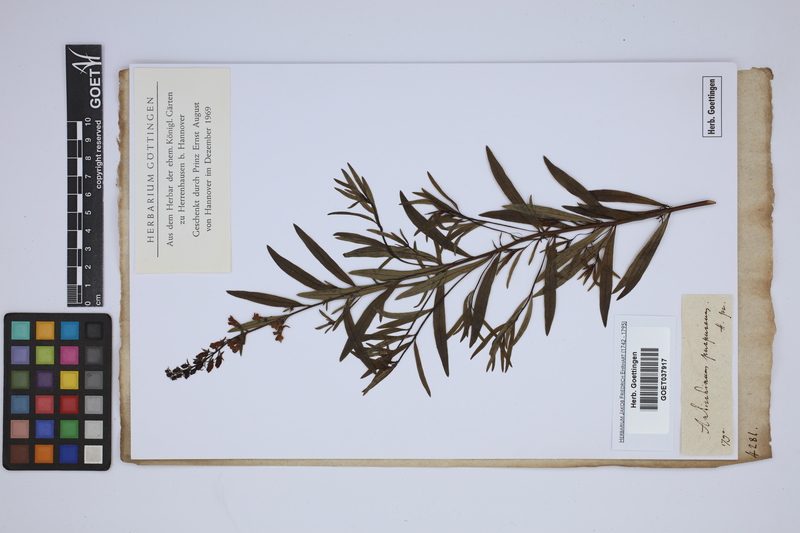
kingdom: Plantae
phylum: Tracheophyta
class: Magnoliopsida
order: Lamiales
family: Plantaginaceae
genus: Linaria
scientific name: Linaria purpurea
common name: Purple toadflax
